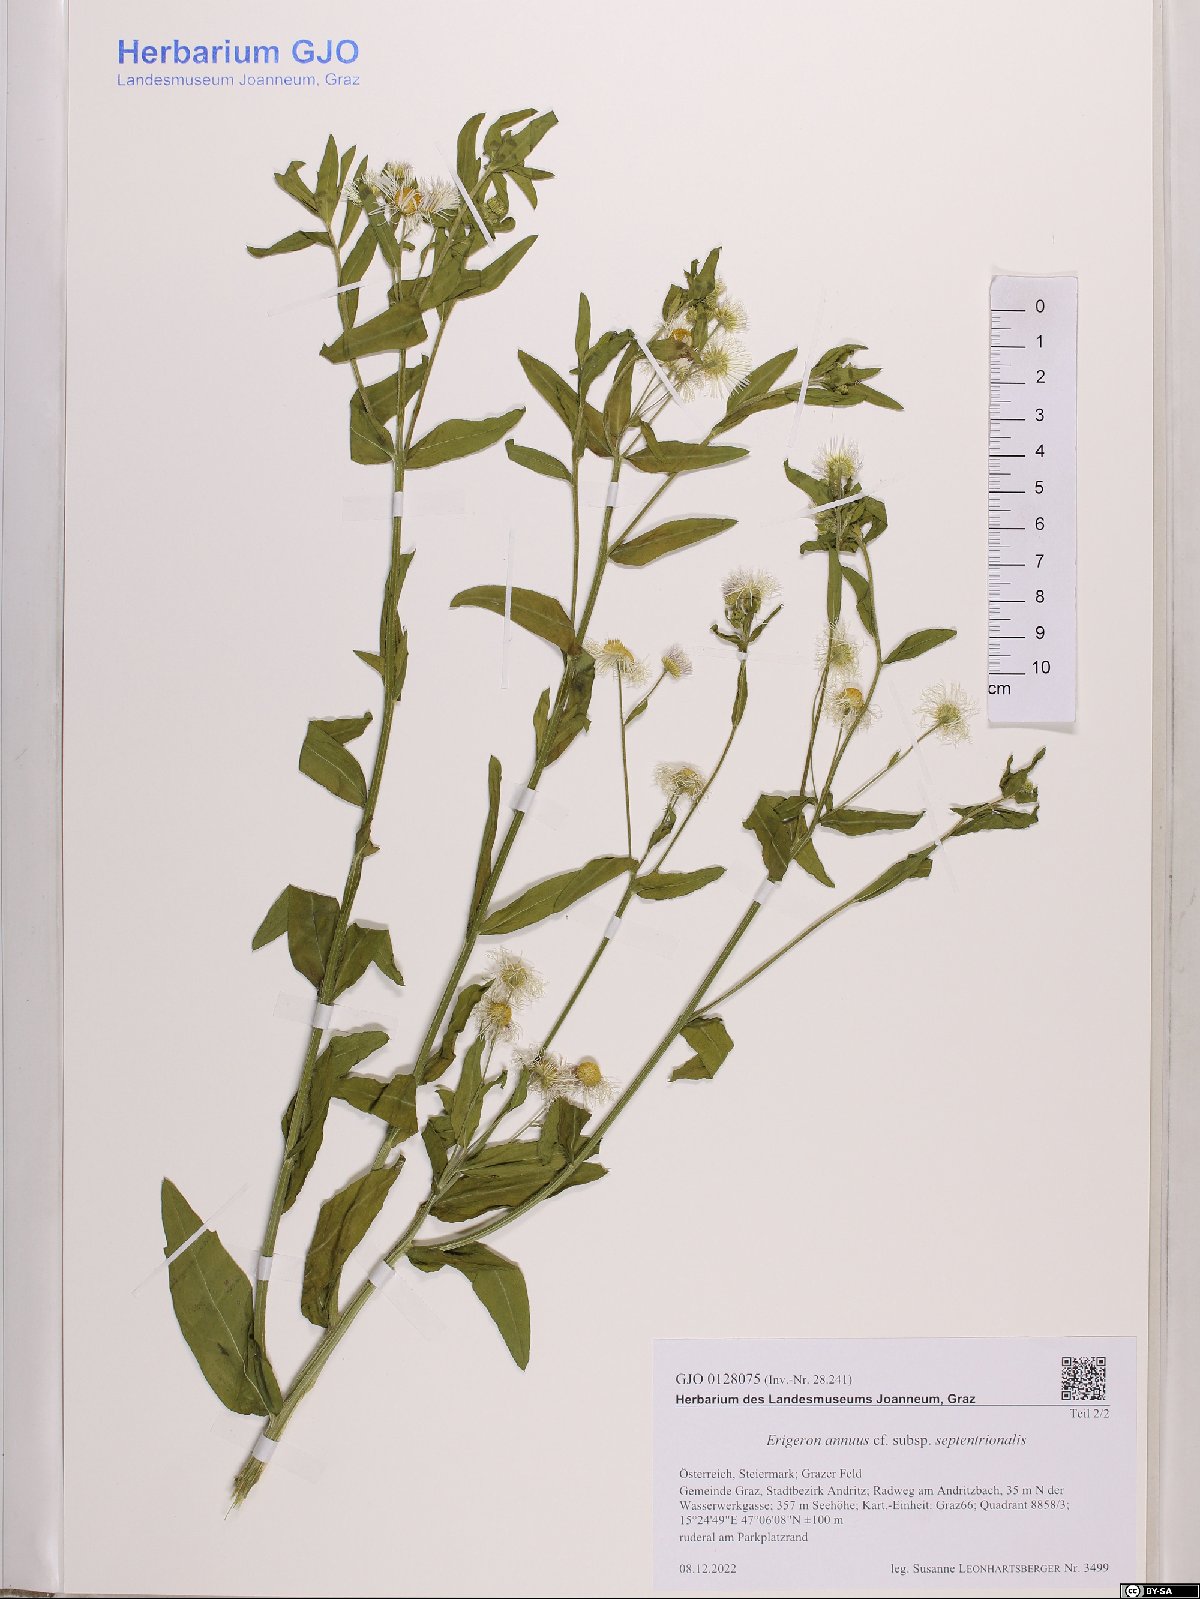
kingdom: Plantae
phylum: Tracheophyta
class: Magnoliopsida
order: Asterales
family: Asteraceae
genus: Erigeron
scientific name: Erigeron annuus
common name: Tall fleabane
